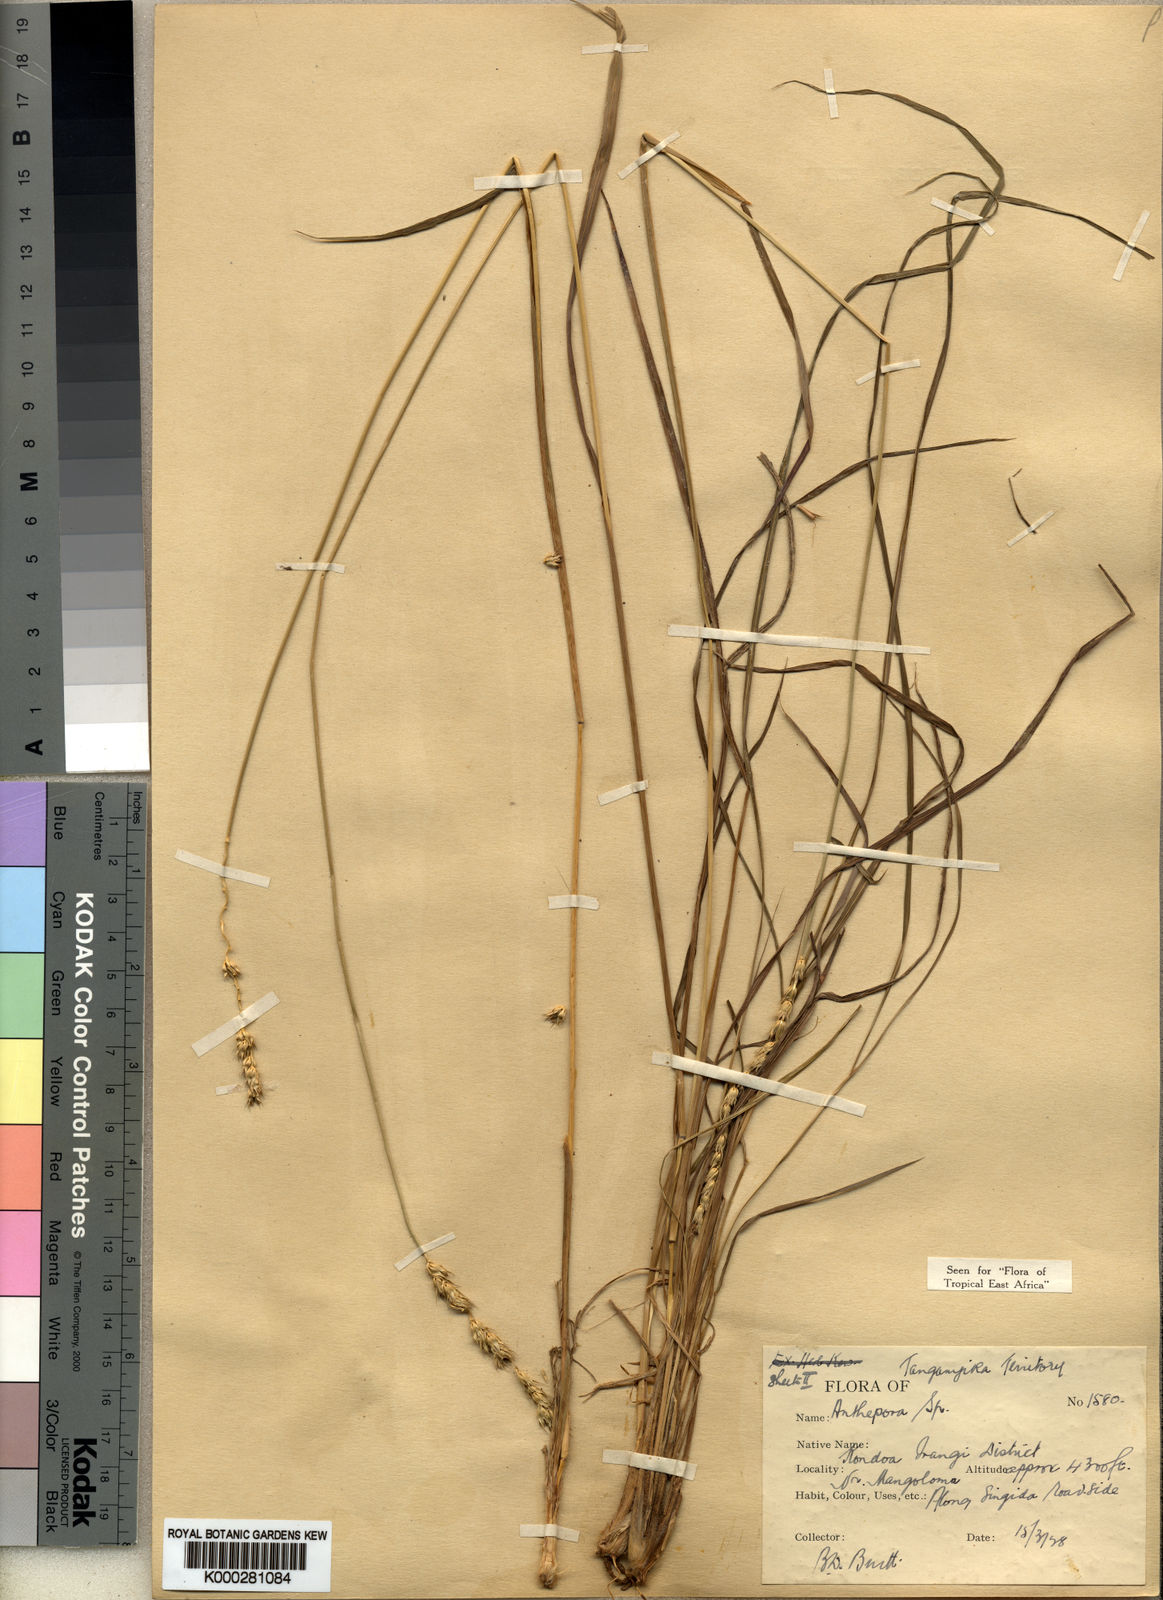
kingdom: Plantae
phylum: Tracheophyta
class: Liliopsida
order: Poales
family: Poaceae
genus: Anthephora
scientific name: Anthephora elongata
